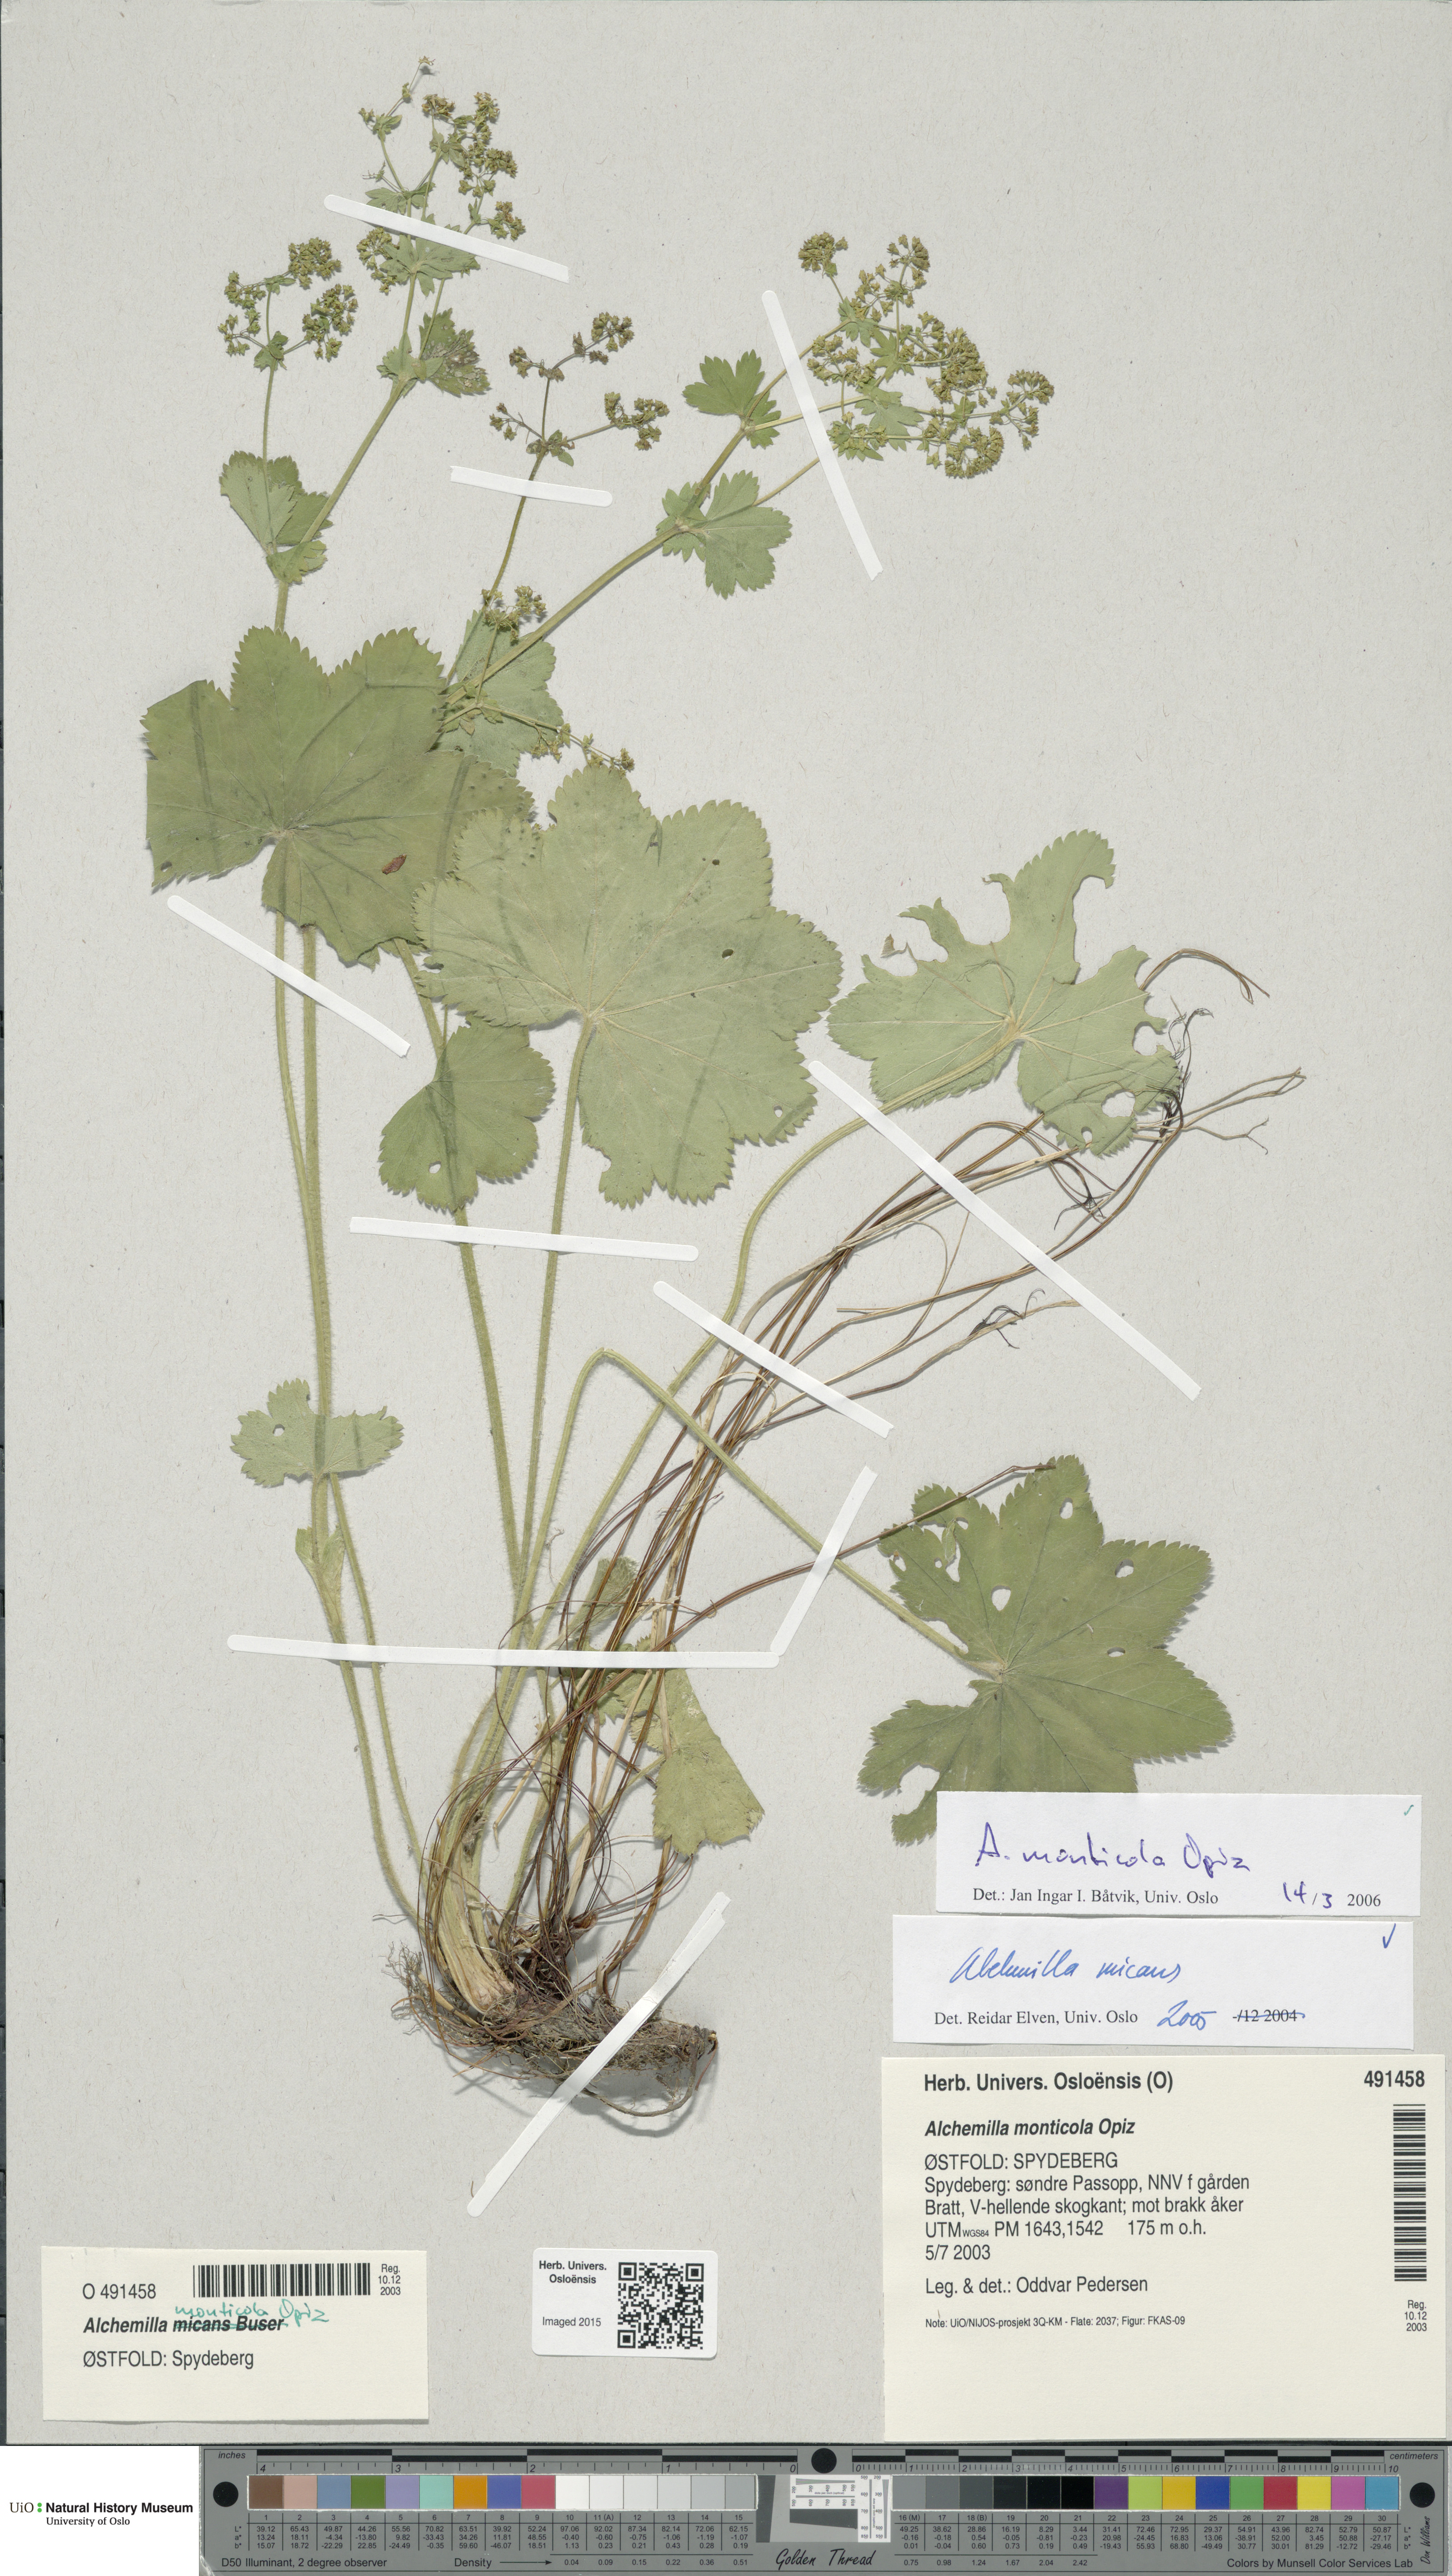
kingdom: Plantae
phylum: Tracheophyta
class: Magnoliopsida
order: Rosales
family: Rosaceae
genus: Alchemilla
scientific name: Alchemilla monticola
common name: Hairy lady's mantle
